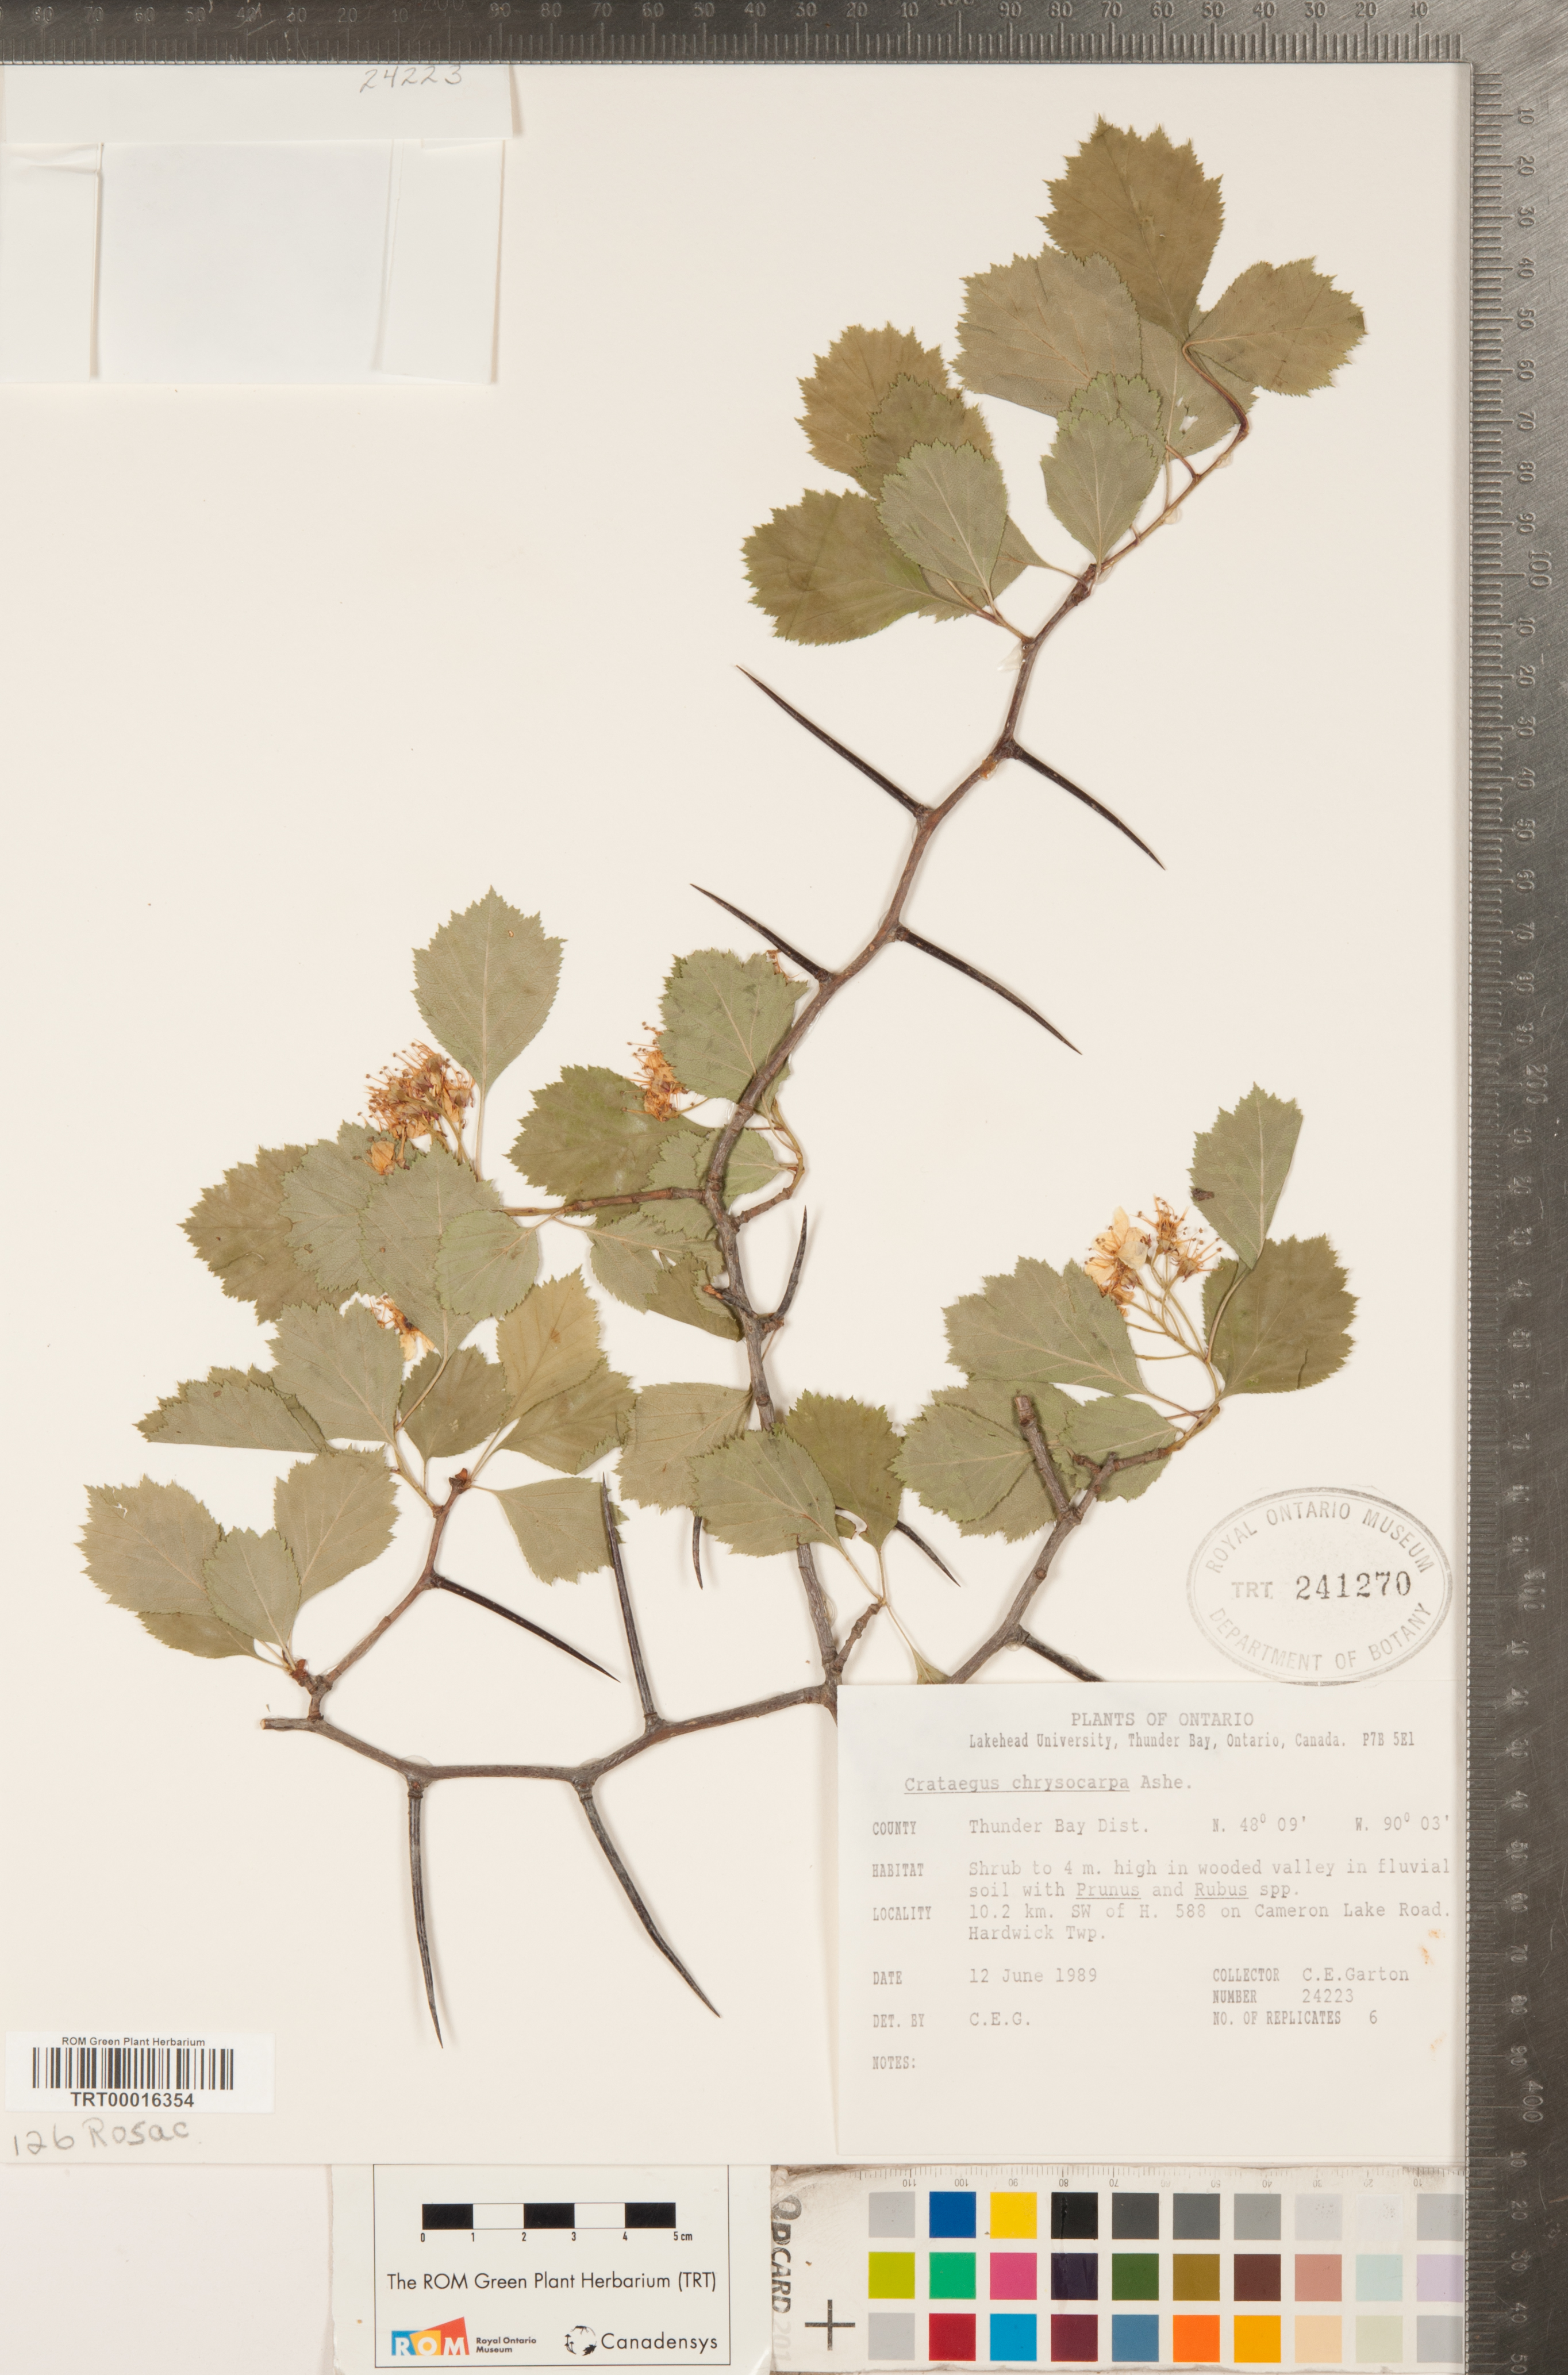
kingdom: Plantae
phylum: Tracheophyta
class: Magnoliopsida
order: Rosales
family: Rosaceae
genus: Crataegus
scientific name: Crataegus chrysocarpa
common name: Fire-berry hawthorn
